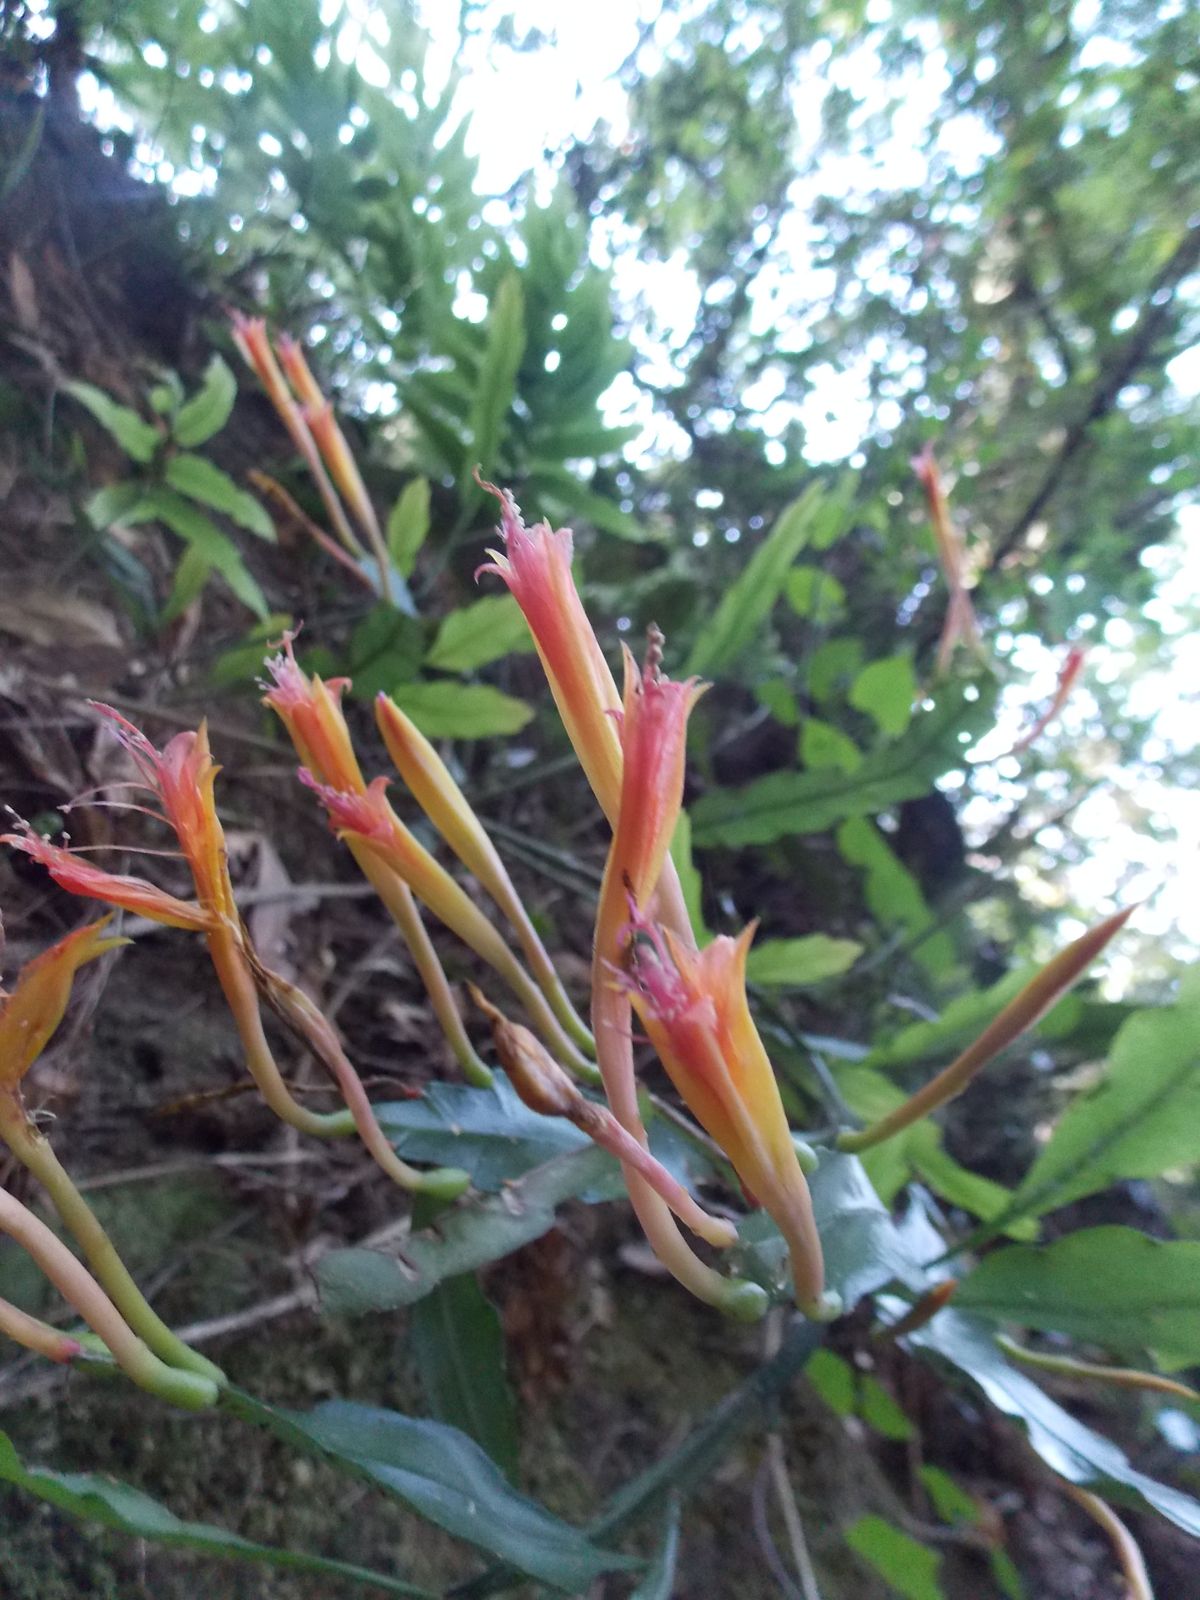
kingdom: Plantae
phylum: Tracheophyta
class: Magnoliopsida
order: Caryophyllales
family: Cactaceae
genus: Disocactus
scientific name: Disocactus
